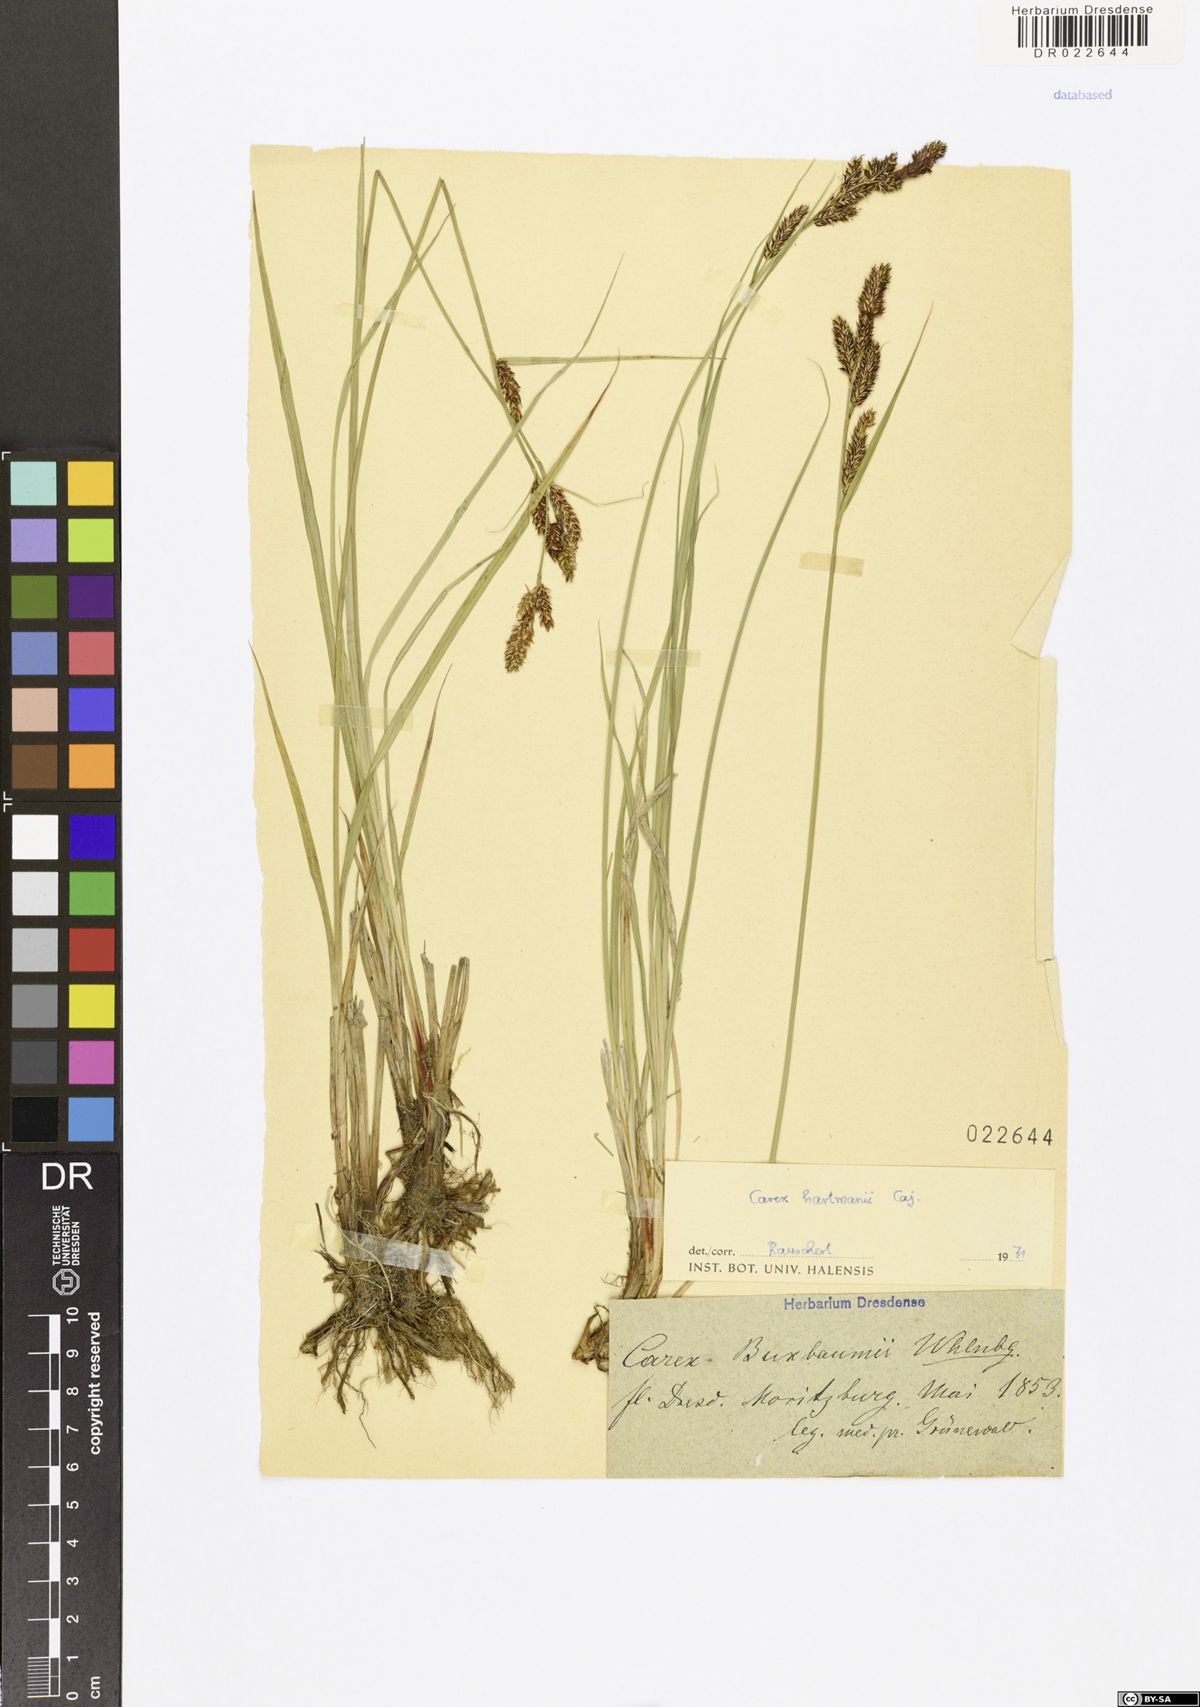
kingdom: Plantae
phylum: Tracheophyta
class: Liliopsida
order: Poales
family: Cyperaceae
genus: Carex
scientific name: Carex hartmaniorum
